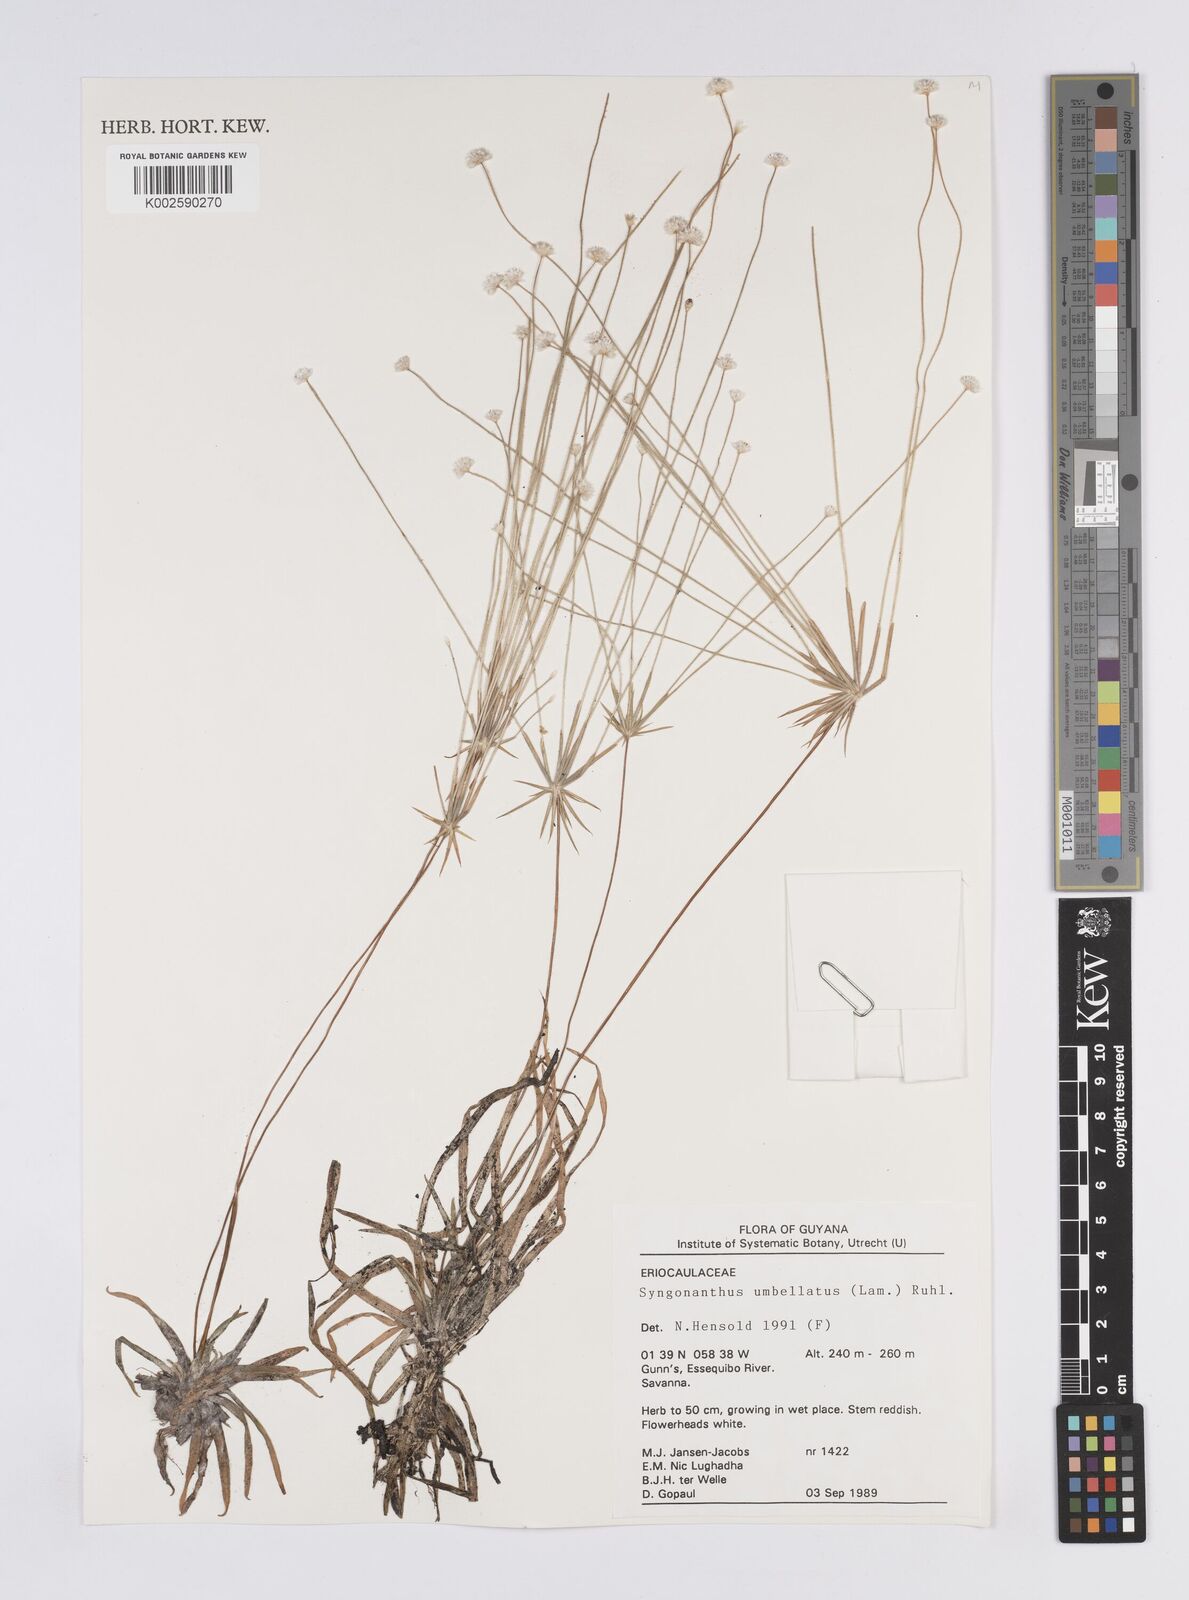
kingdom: Plantae
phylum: Tracheophyta
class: Liliopsida
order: Poales
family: Eriocaulaceae
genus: Syngonanthus
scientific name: Syngonanthus umbellatus
